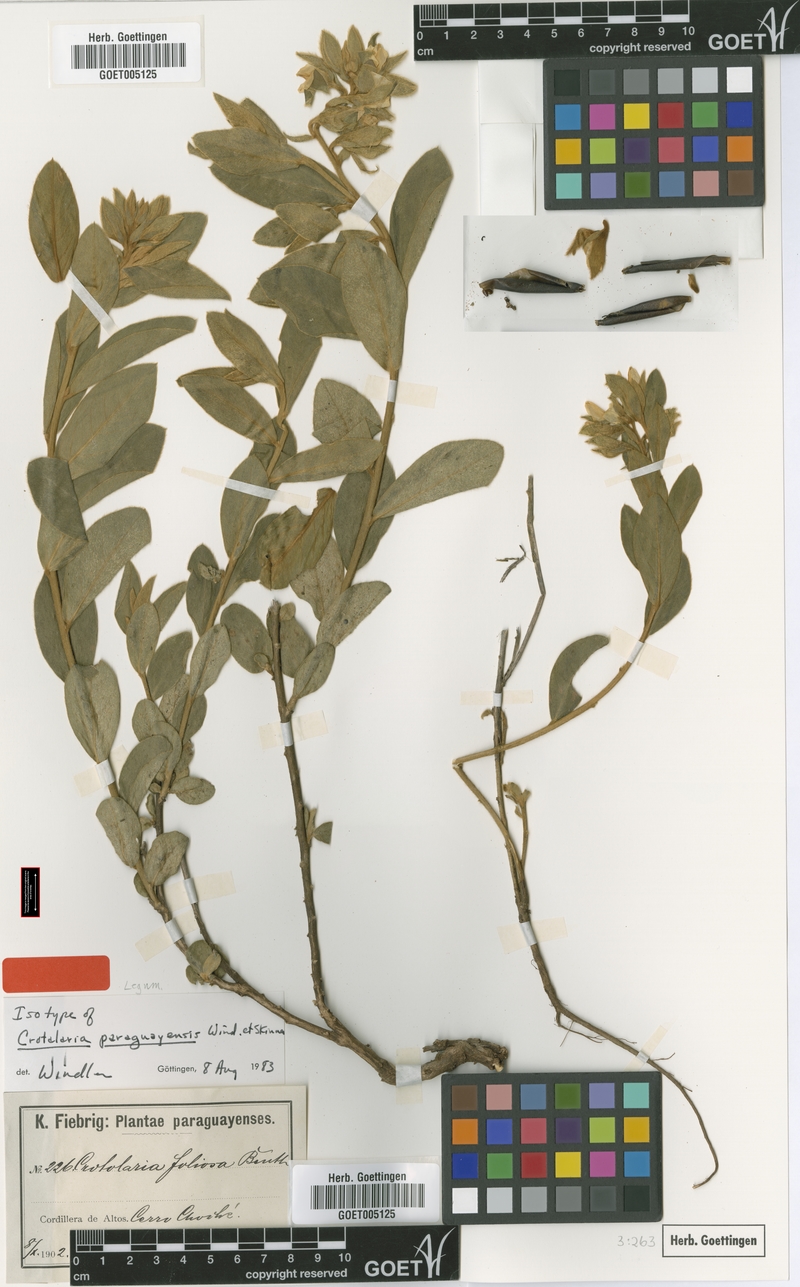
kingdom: Plantae
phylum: Tracheophyta
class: Magnoliopsida
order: Fabales
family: Fabaceae
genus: Crotalaria
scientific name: Crotalaria martiana
